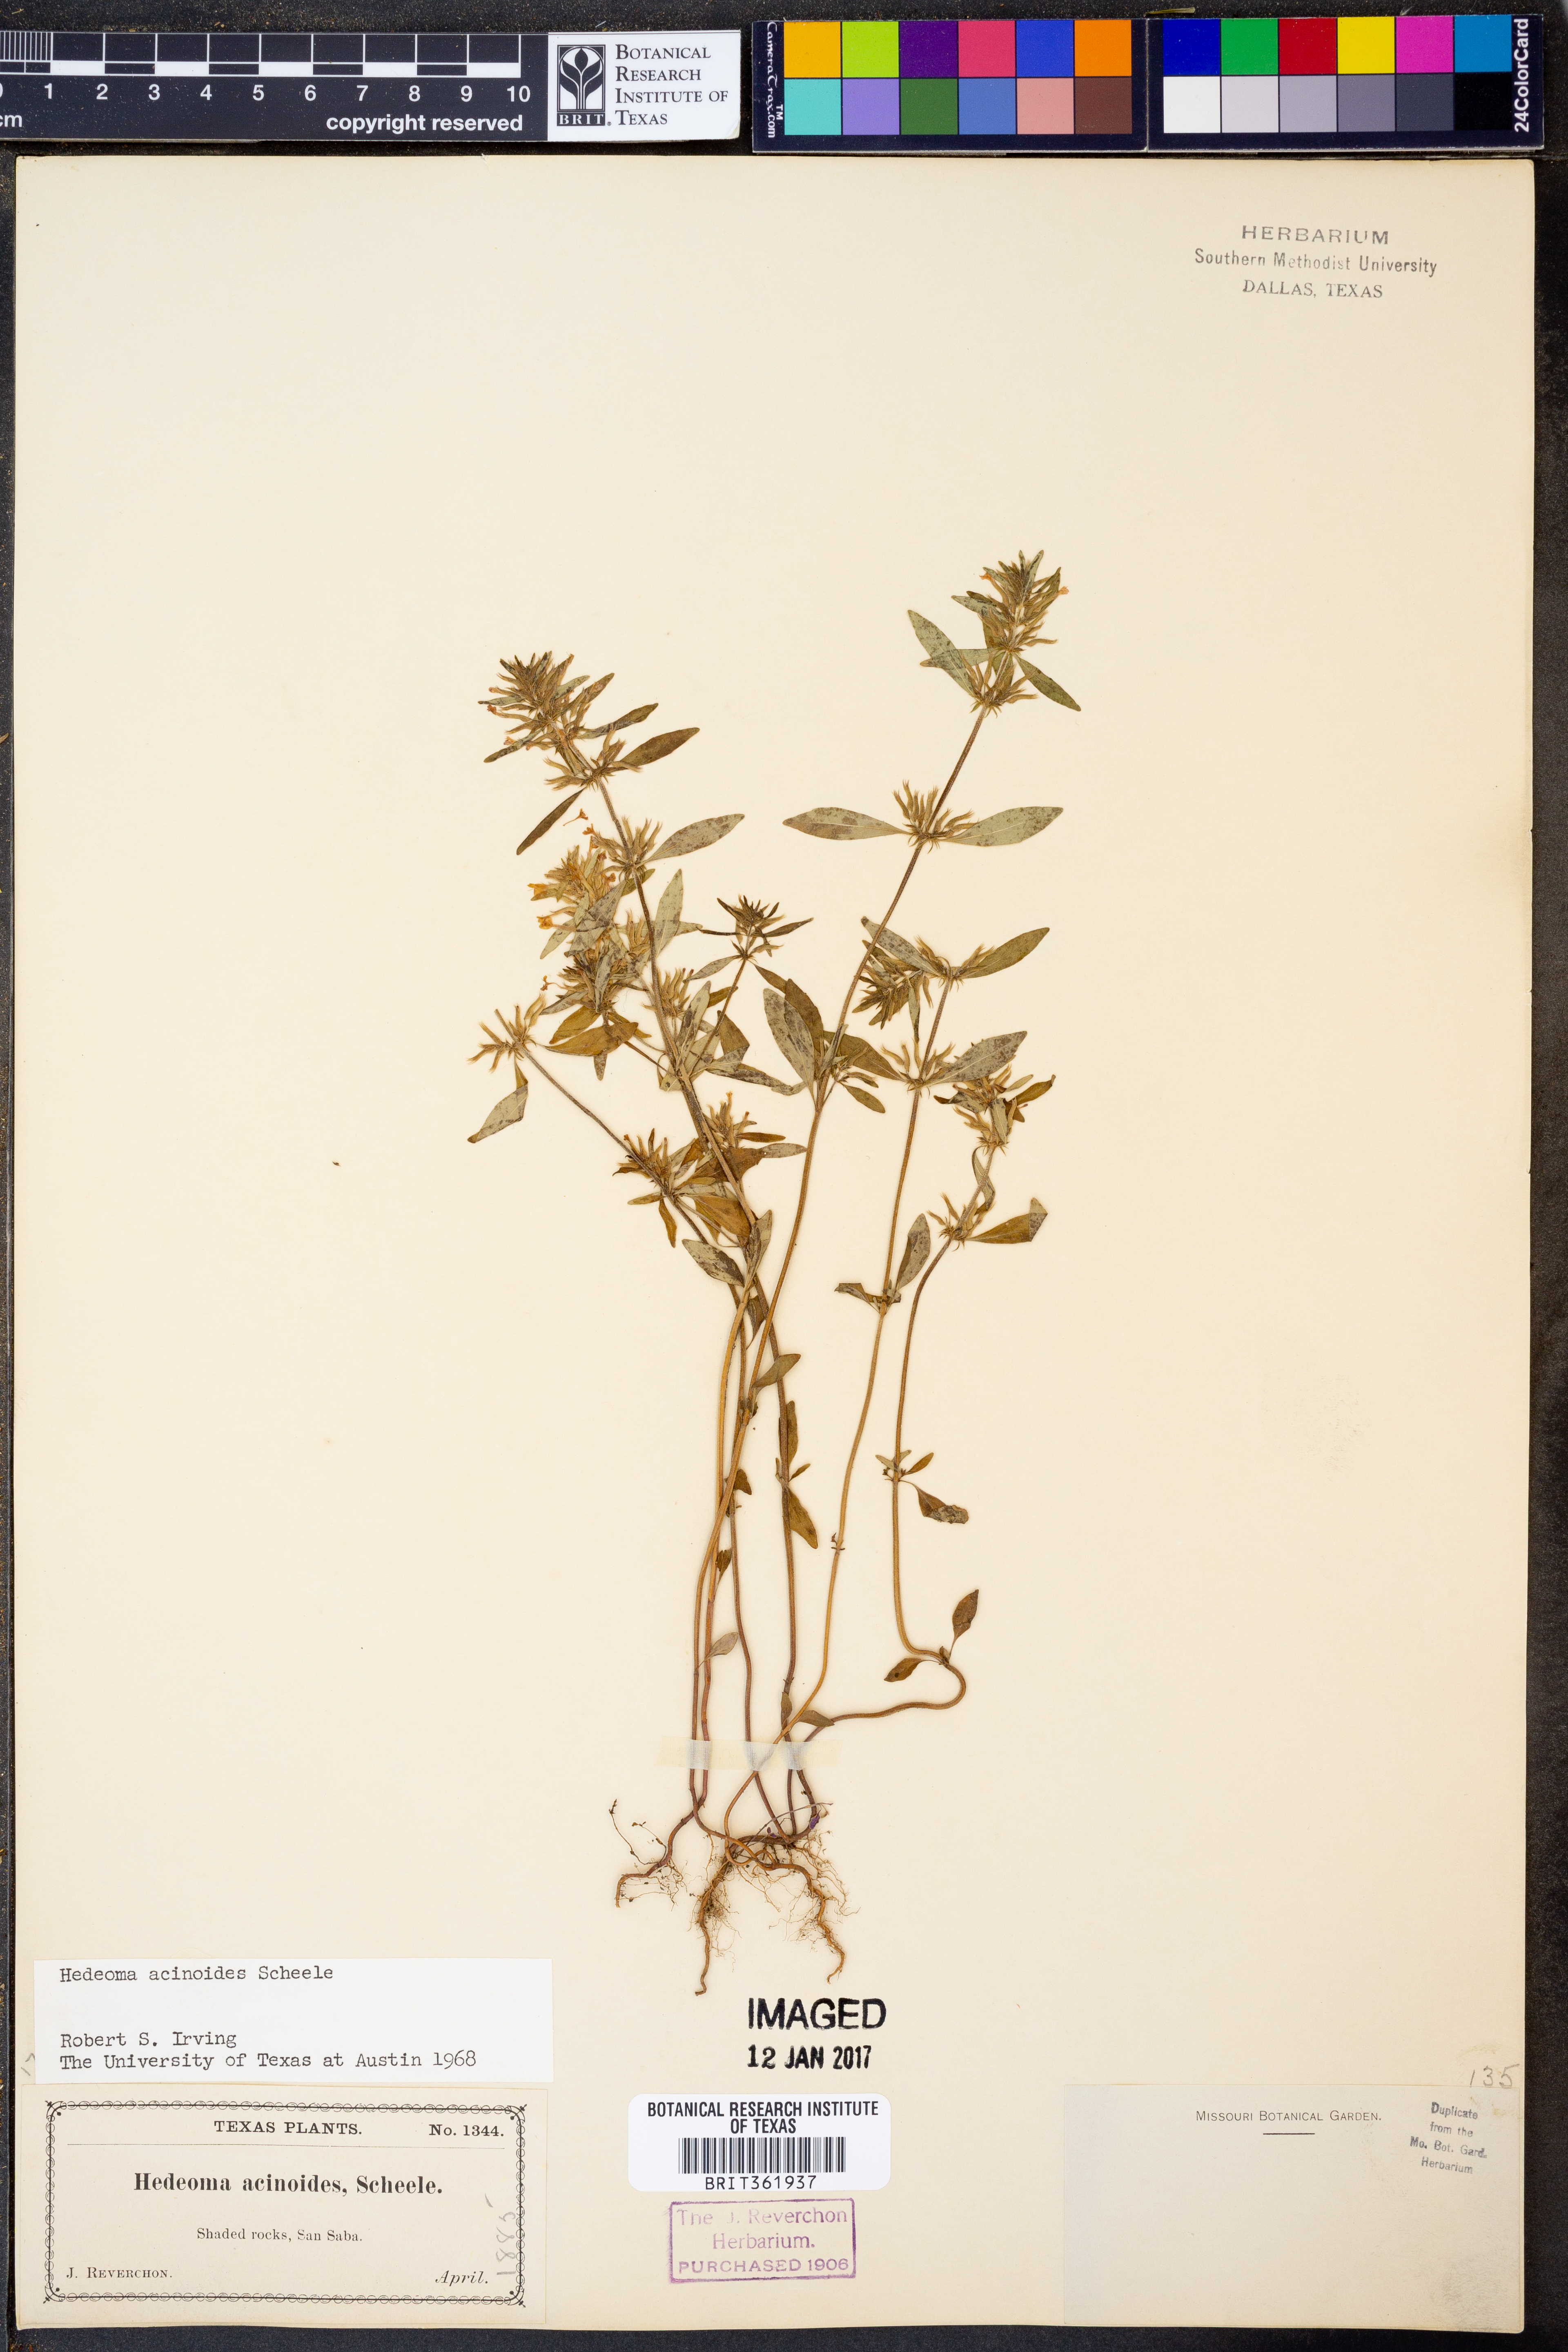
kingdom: Plantae
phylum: Tracheophyta
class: Magnoliopsida
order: Lamiales
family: Lamiaceae
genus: Hedeoma
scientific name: Hedeoma acinoides
